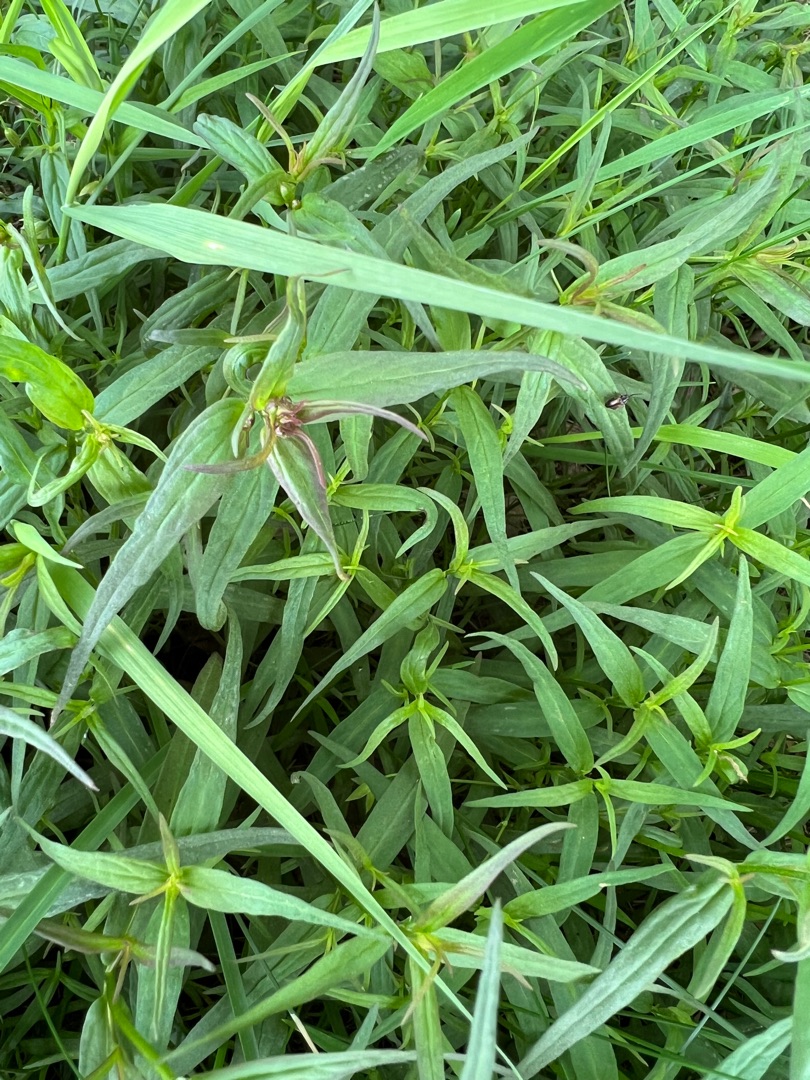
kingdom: Plantae
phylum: Tracheophyta
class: Magnoliopsida
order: Lamiales
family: Orobanchaceae
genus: Melampyrum
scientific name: Melampyrum pratense
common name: Almindelig kohvede
